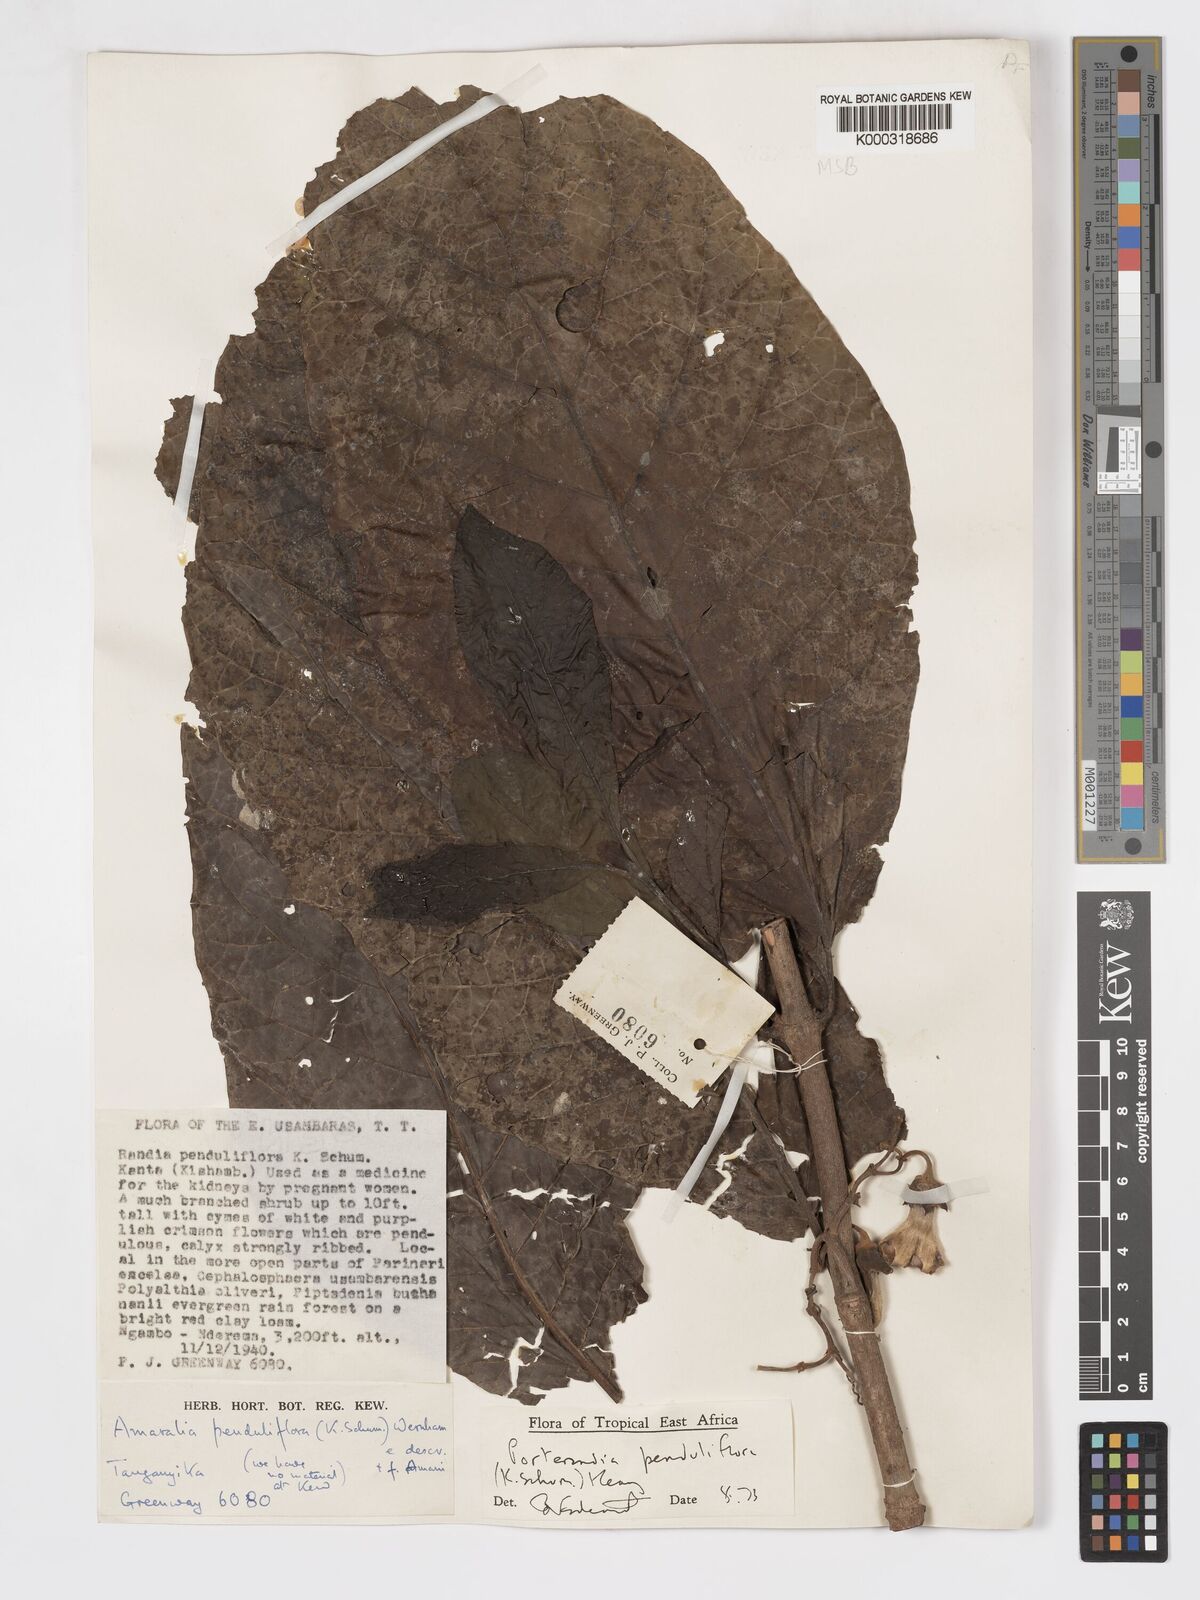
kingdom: Plantae
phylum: Tracheophyta
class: Magnoliopsida
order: Gentianales
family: Rubiaceae
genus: Aoranthe
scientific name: Aoranthe penduliflora
